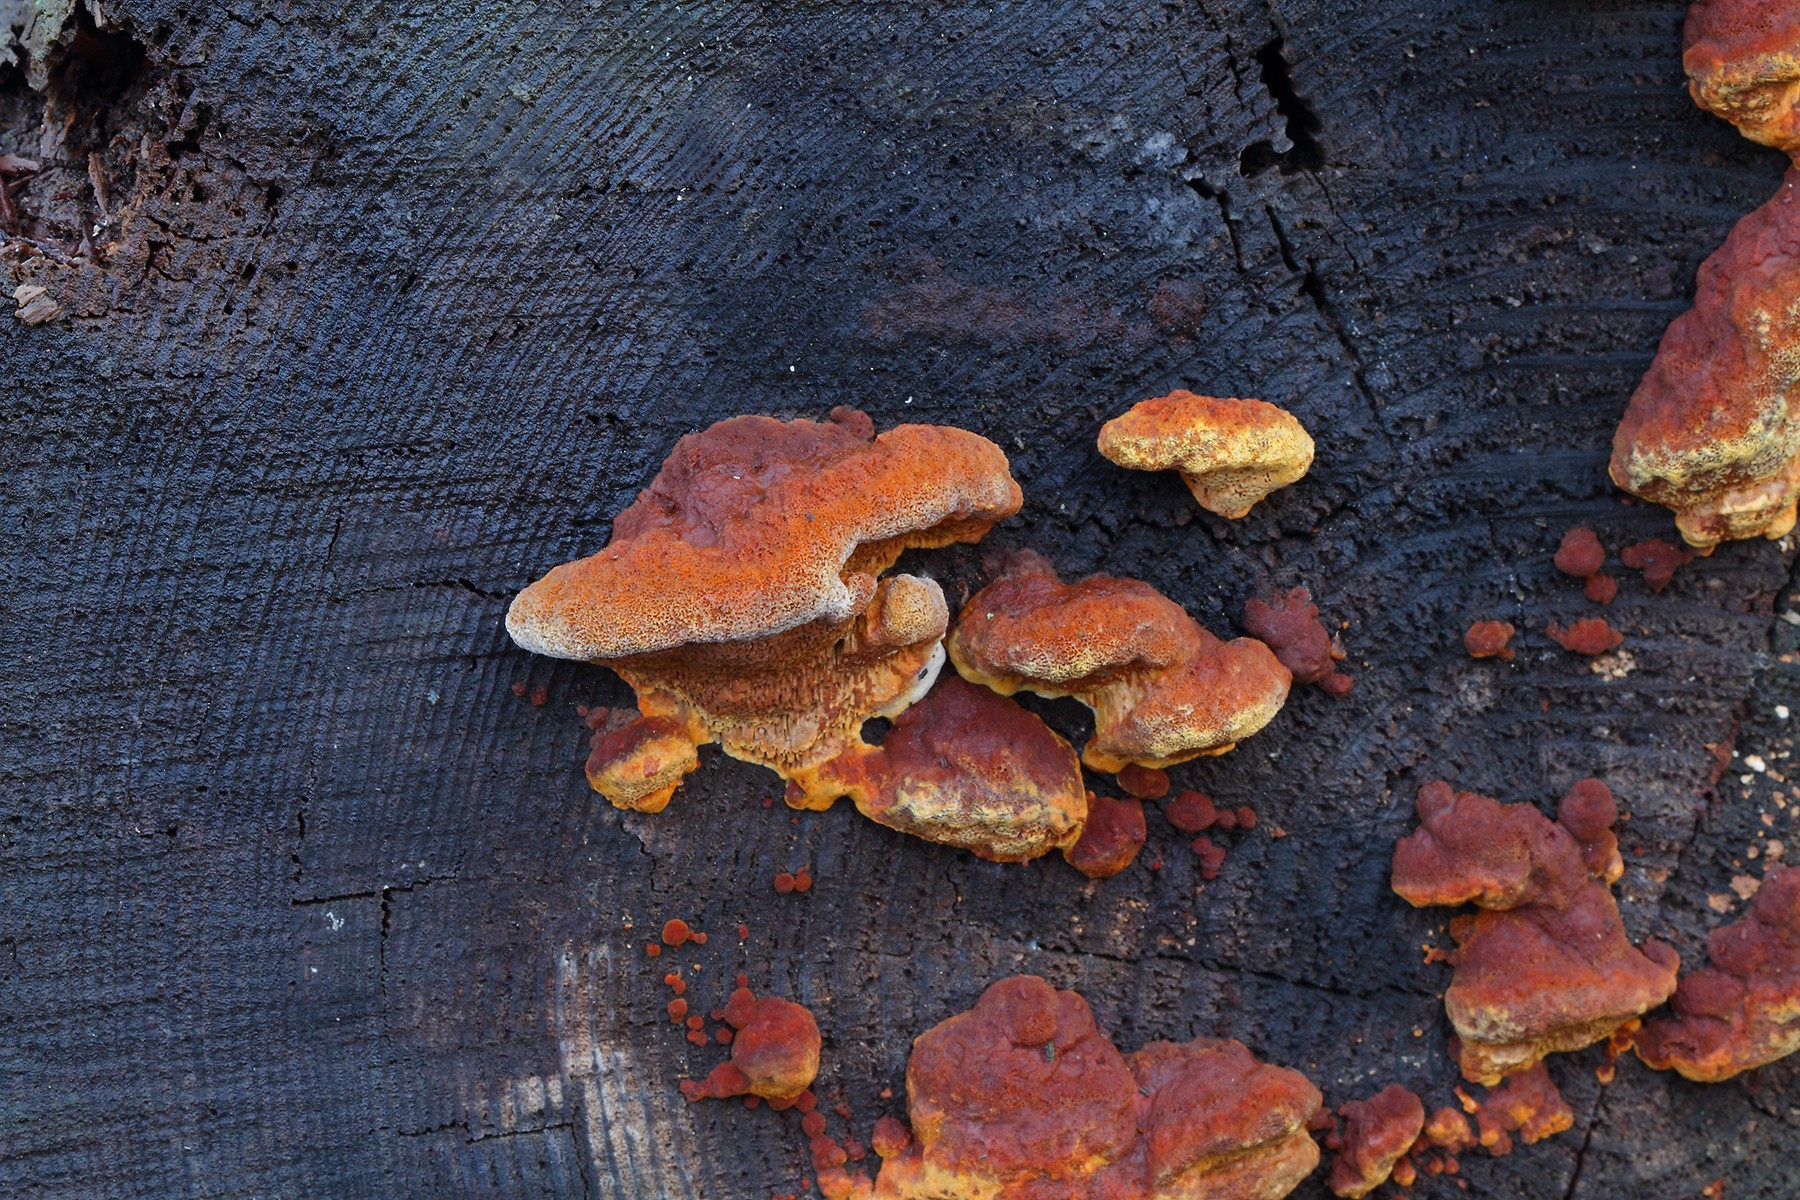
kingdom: Fungi
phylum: Basidiomycota
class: Agaricomycetes
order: Gloeophyllales
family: Gloeophyllaceae
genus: Gloeophyllum
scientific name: Gloeophyllum odoratum
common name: duftende korkhat
